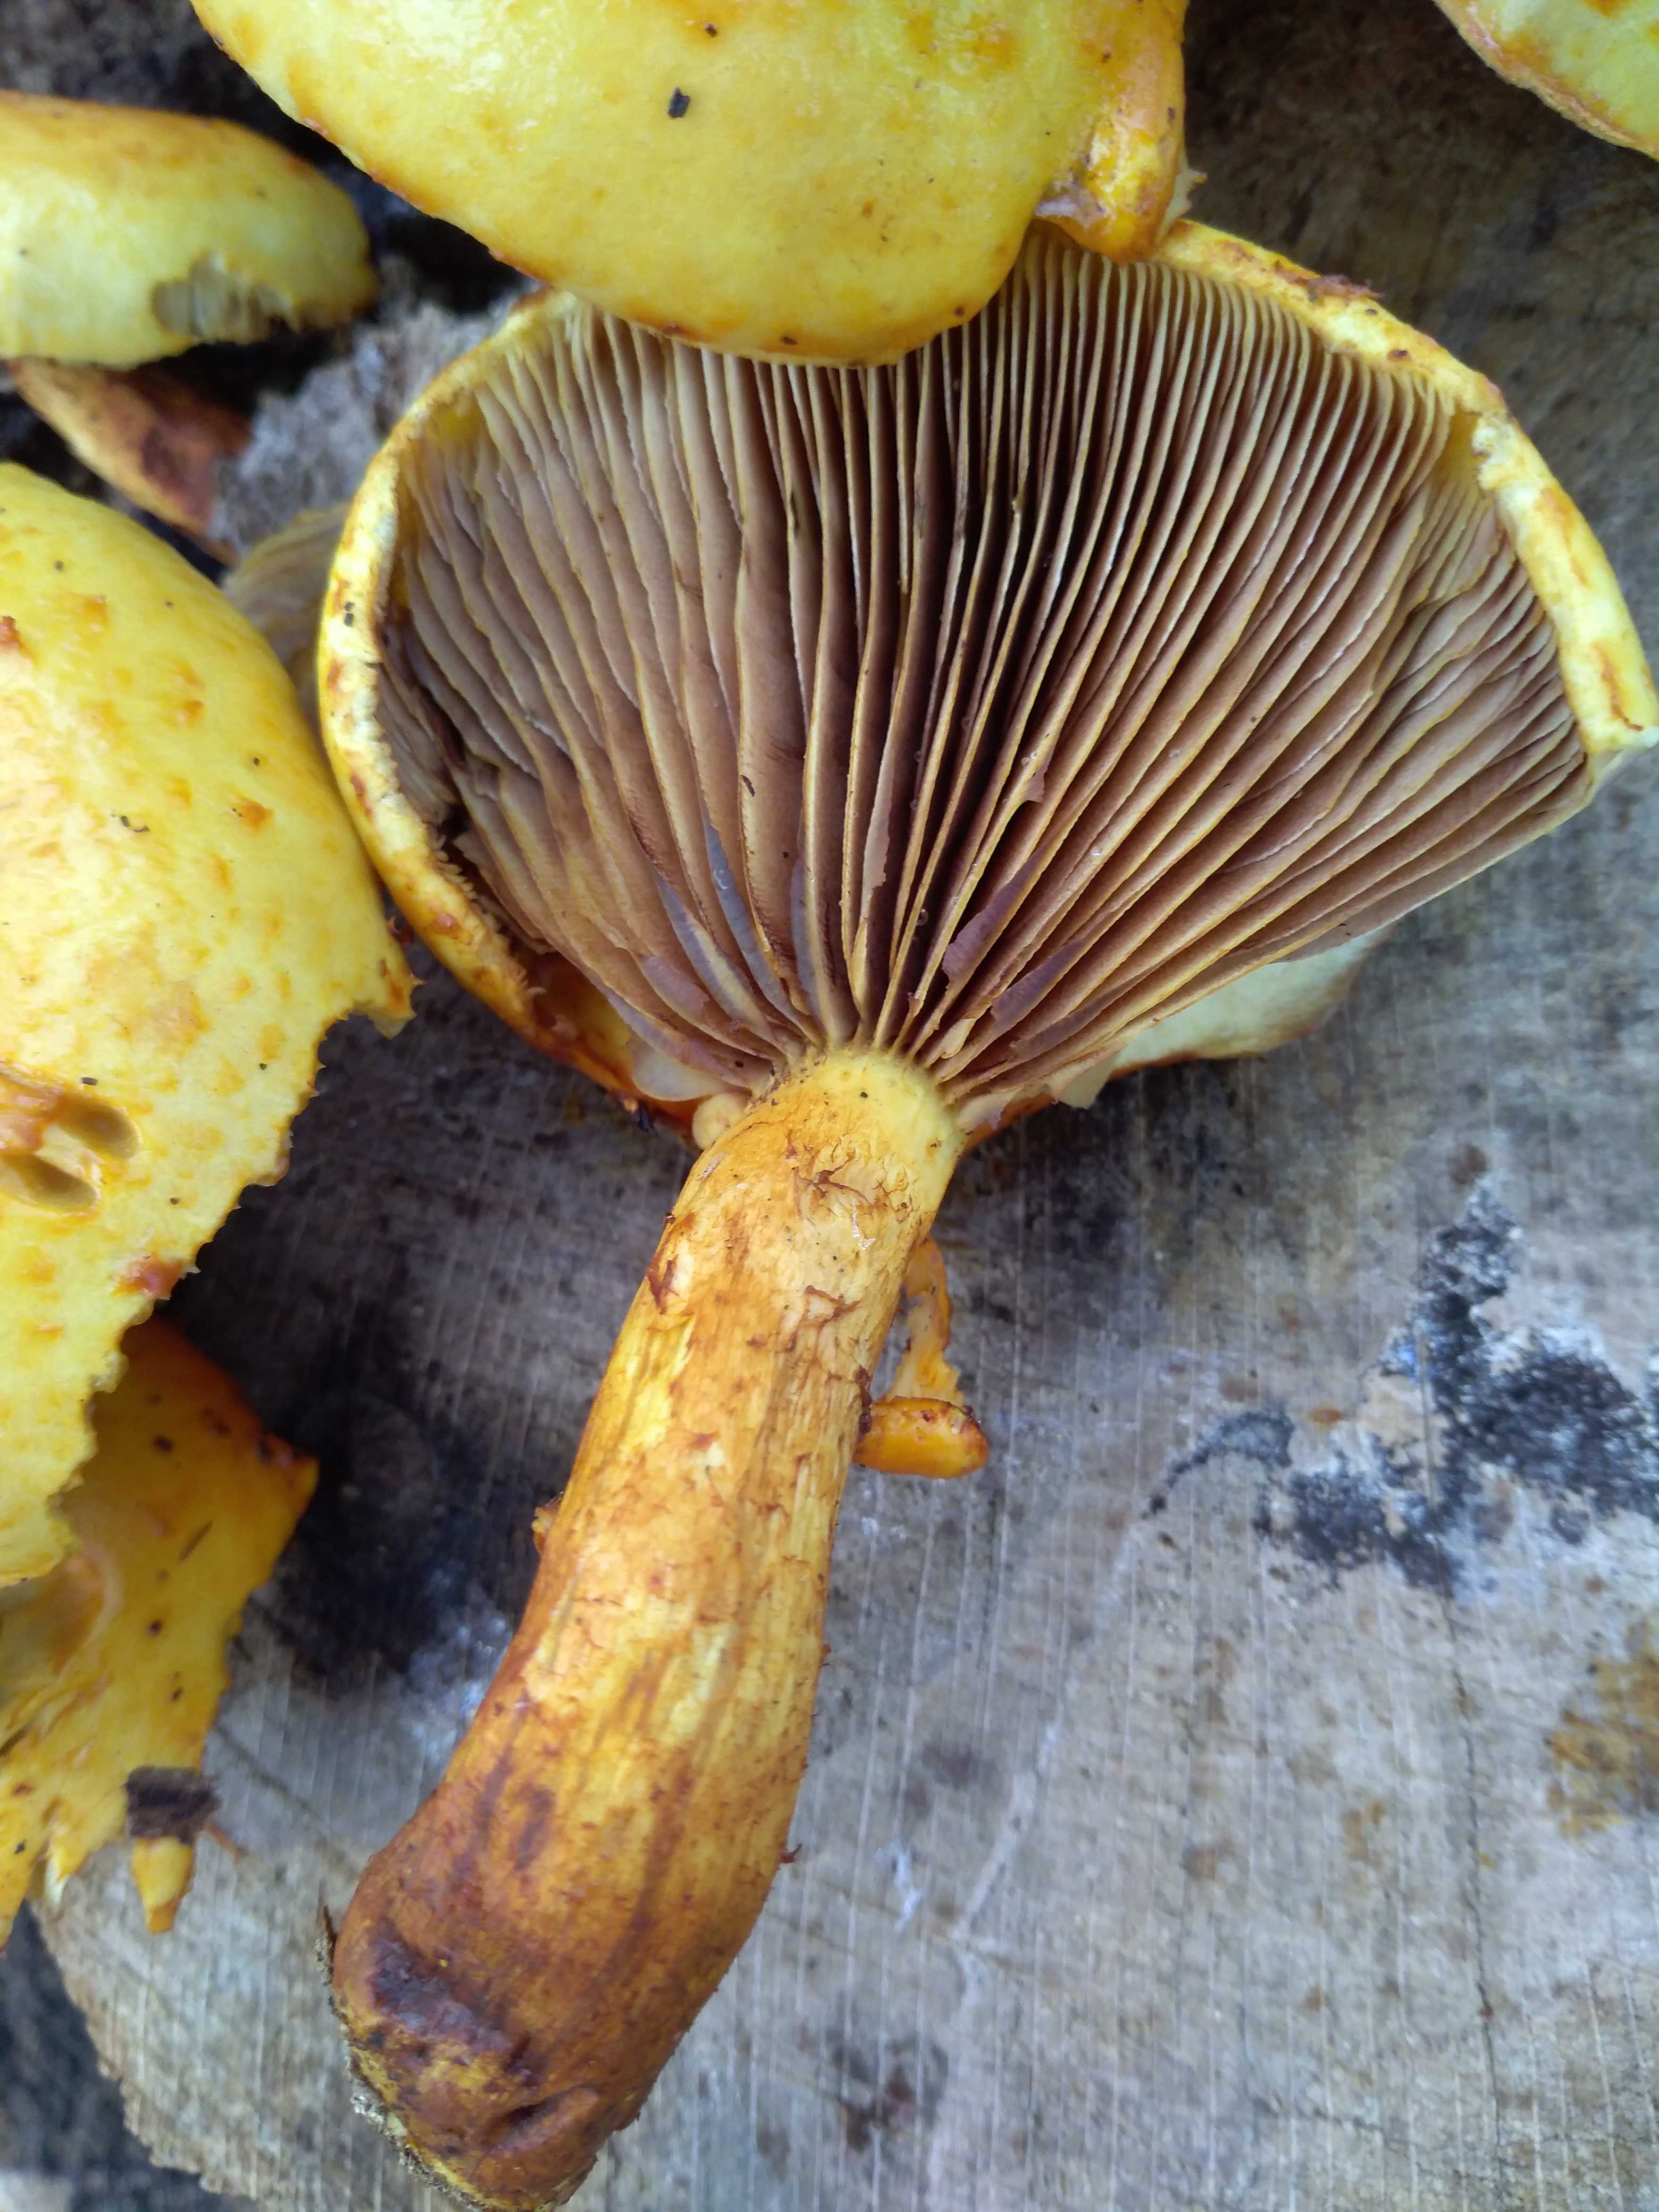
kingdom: Fungi
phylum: Basidiomycota
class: Agaricomycetes
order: Agaricales
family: Strophariaceae
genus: Pholiota
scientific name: Pholiota adiposa
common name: højtsiddende skælhat
